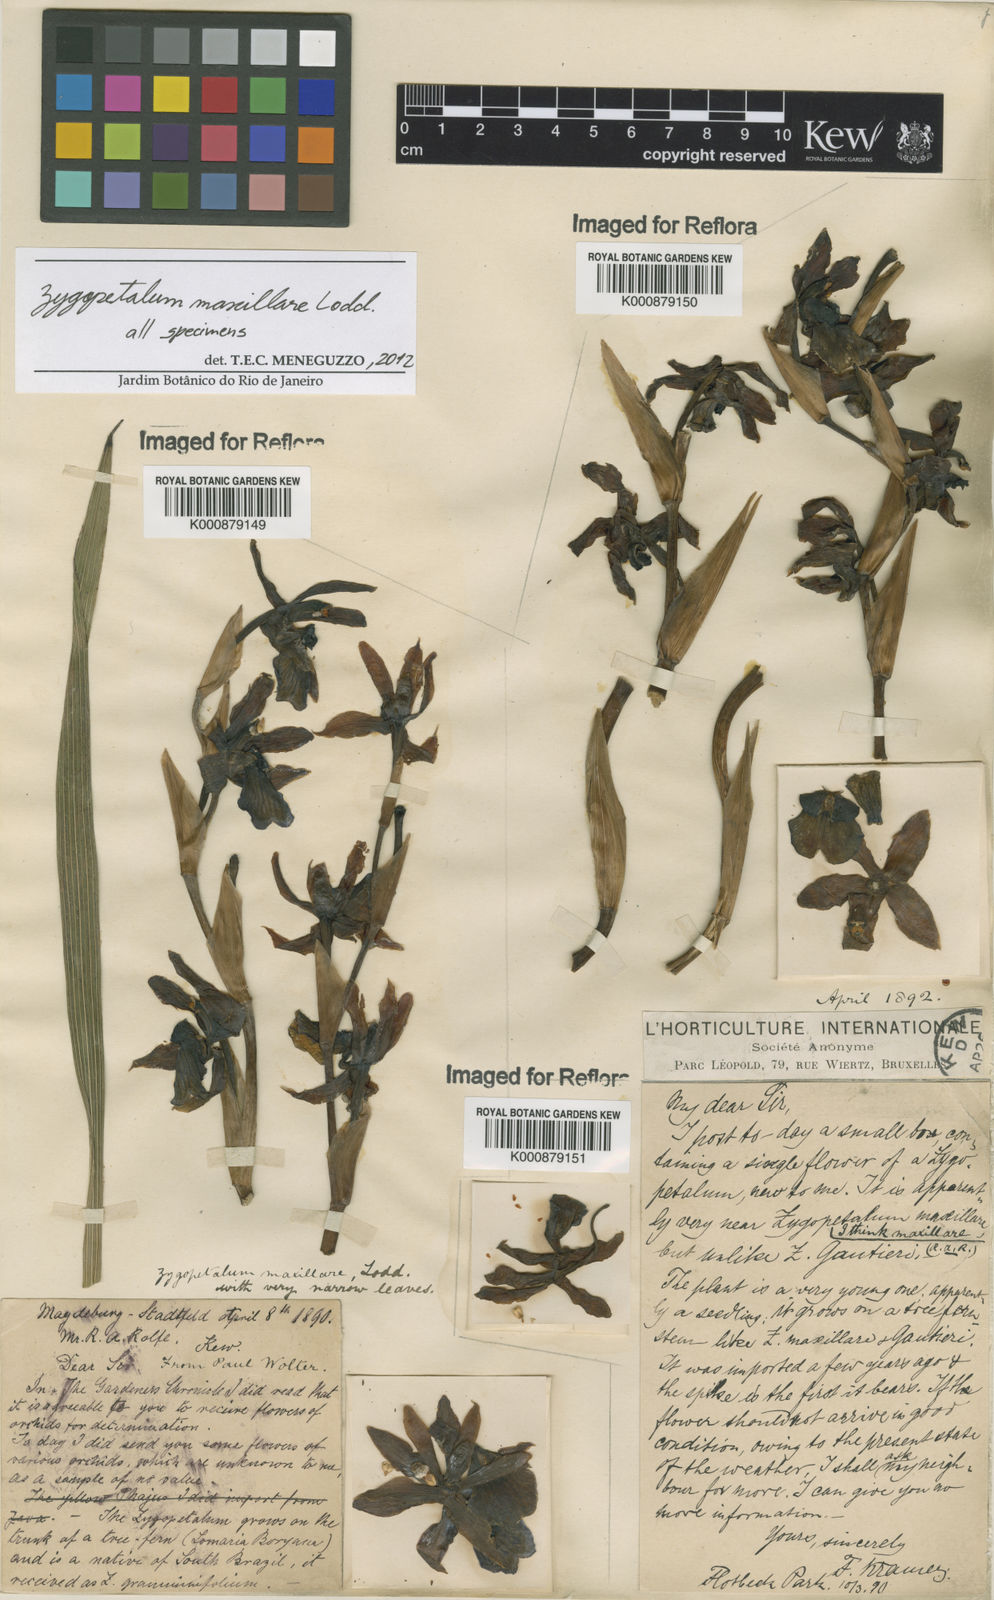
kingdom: Plantae
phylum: Tracheophyta
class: Liliopsida
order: Asparagales
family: Orchidaceae
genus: Zygopetalum
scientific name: Zygopetalum maxillare
